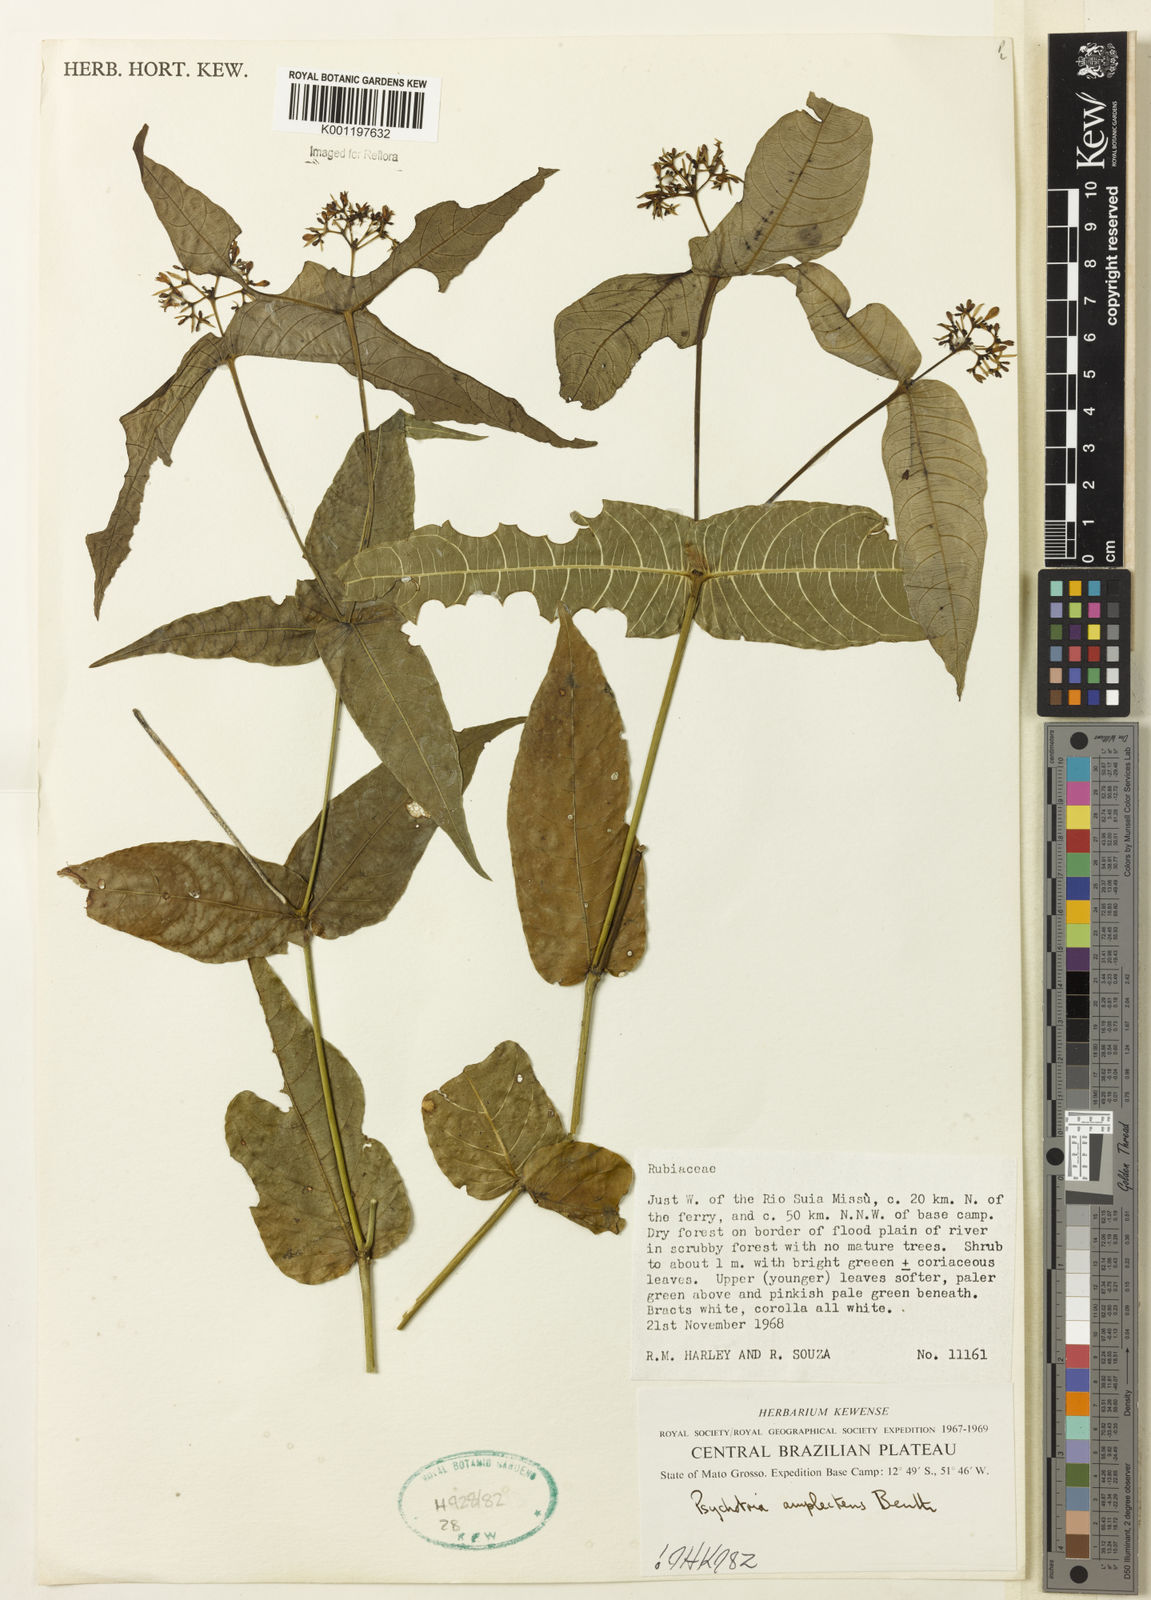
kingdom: Plantae
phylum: Tracheophyta
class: Magnoliopsida
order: Gentianales
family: Rubiaceae
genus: Psychotria
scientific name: Psychotria
